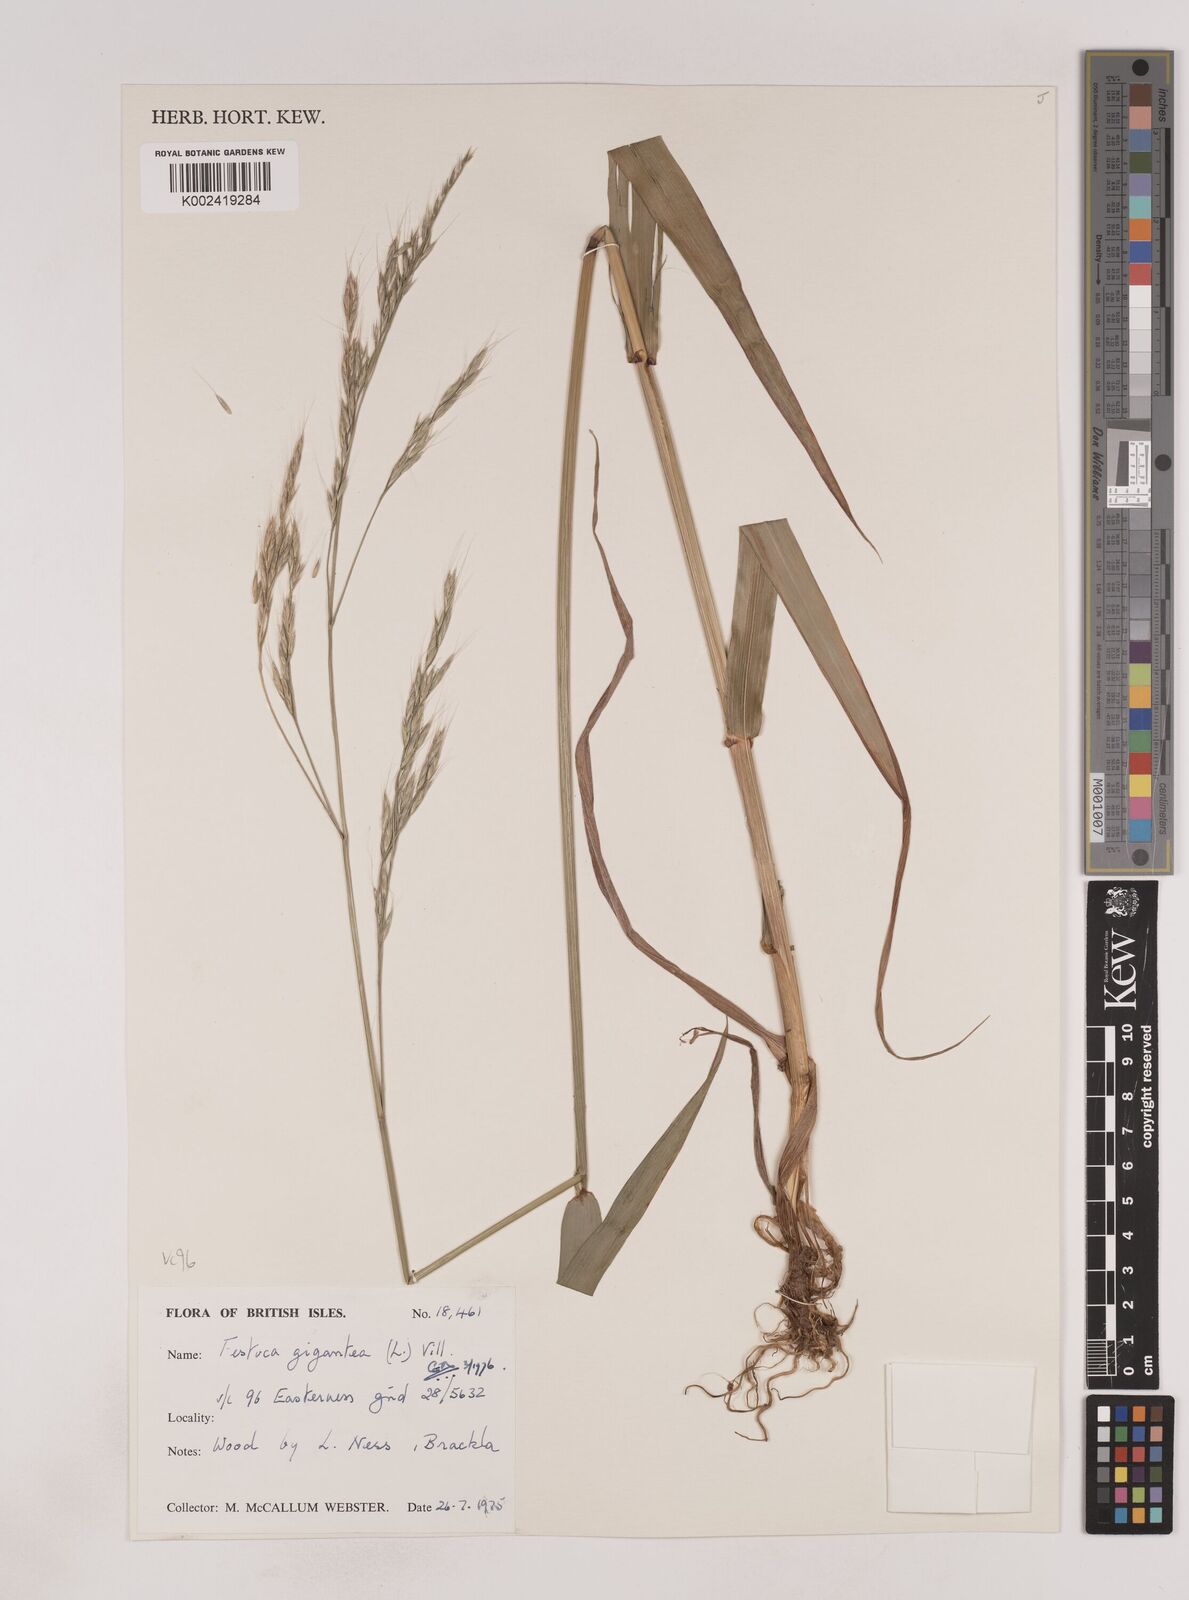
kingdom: Plantae
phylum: Tracheophyta
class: Liliopsida
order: Poales
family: Poaceae
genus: Lolium
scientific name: Lolium giganteum
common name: Giant fescue
